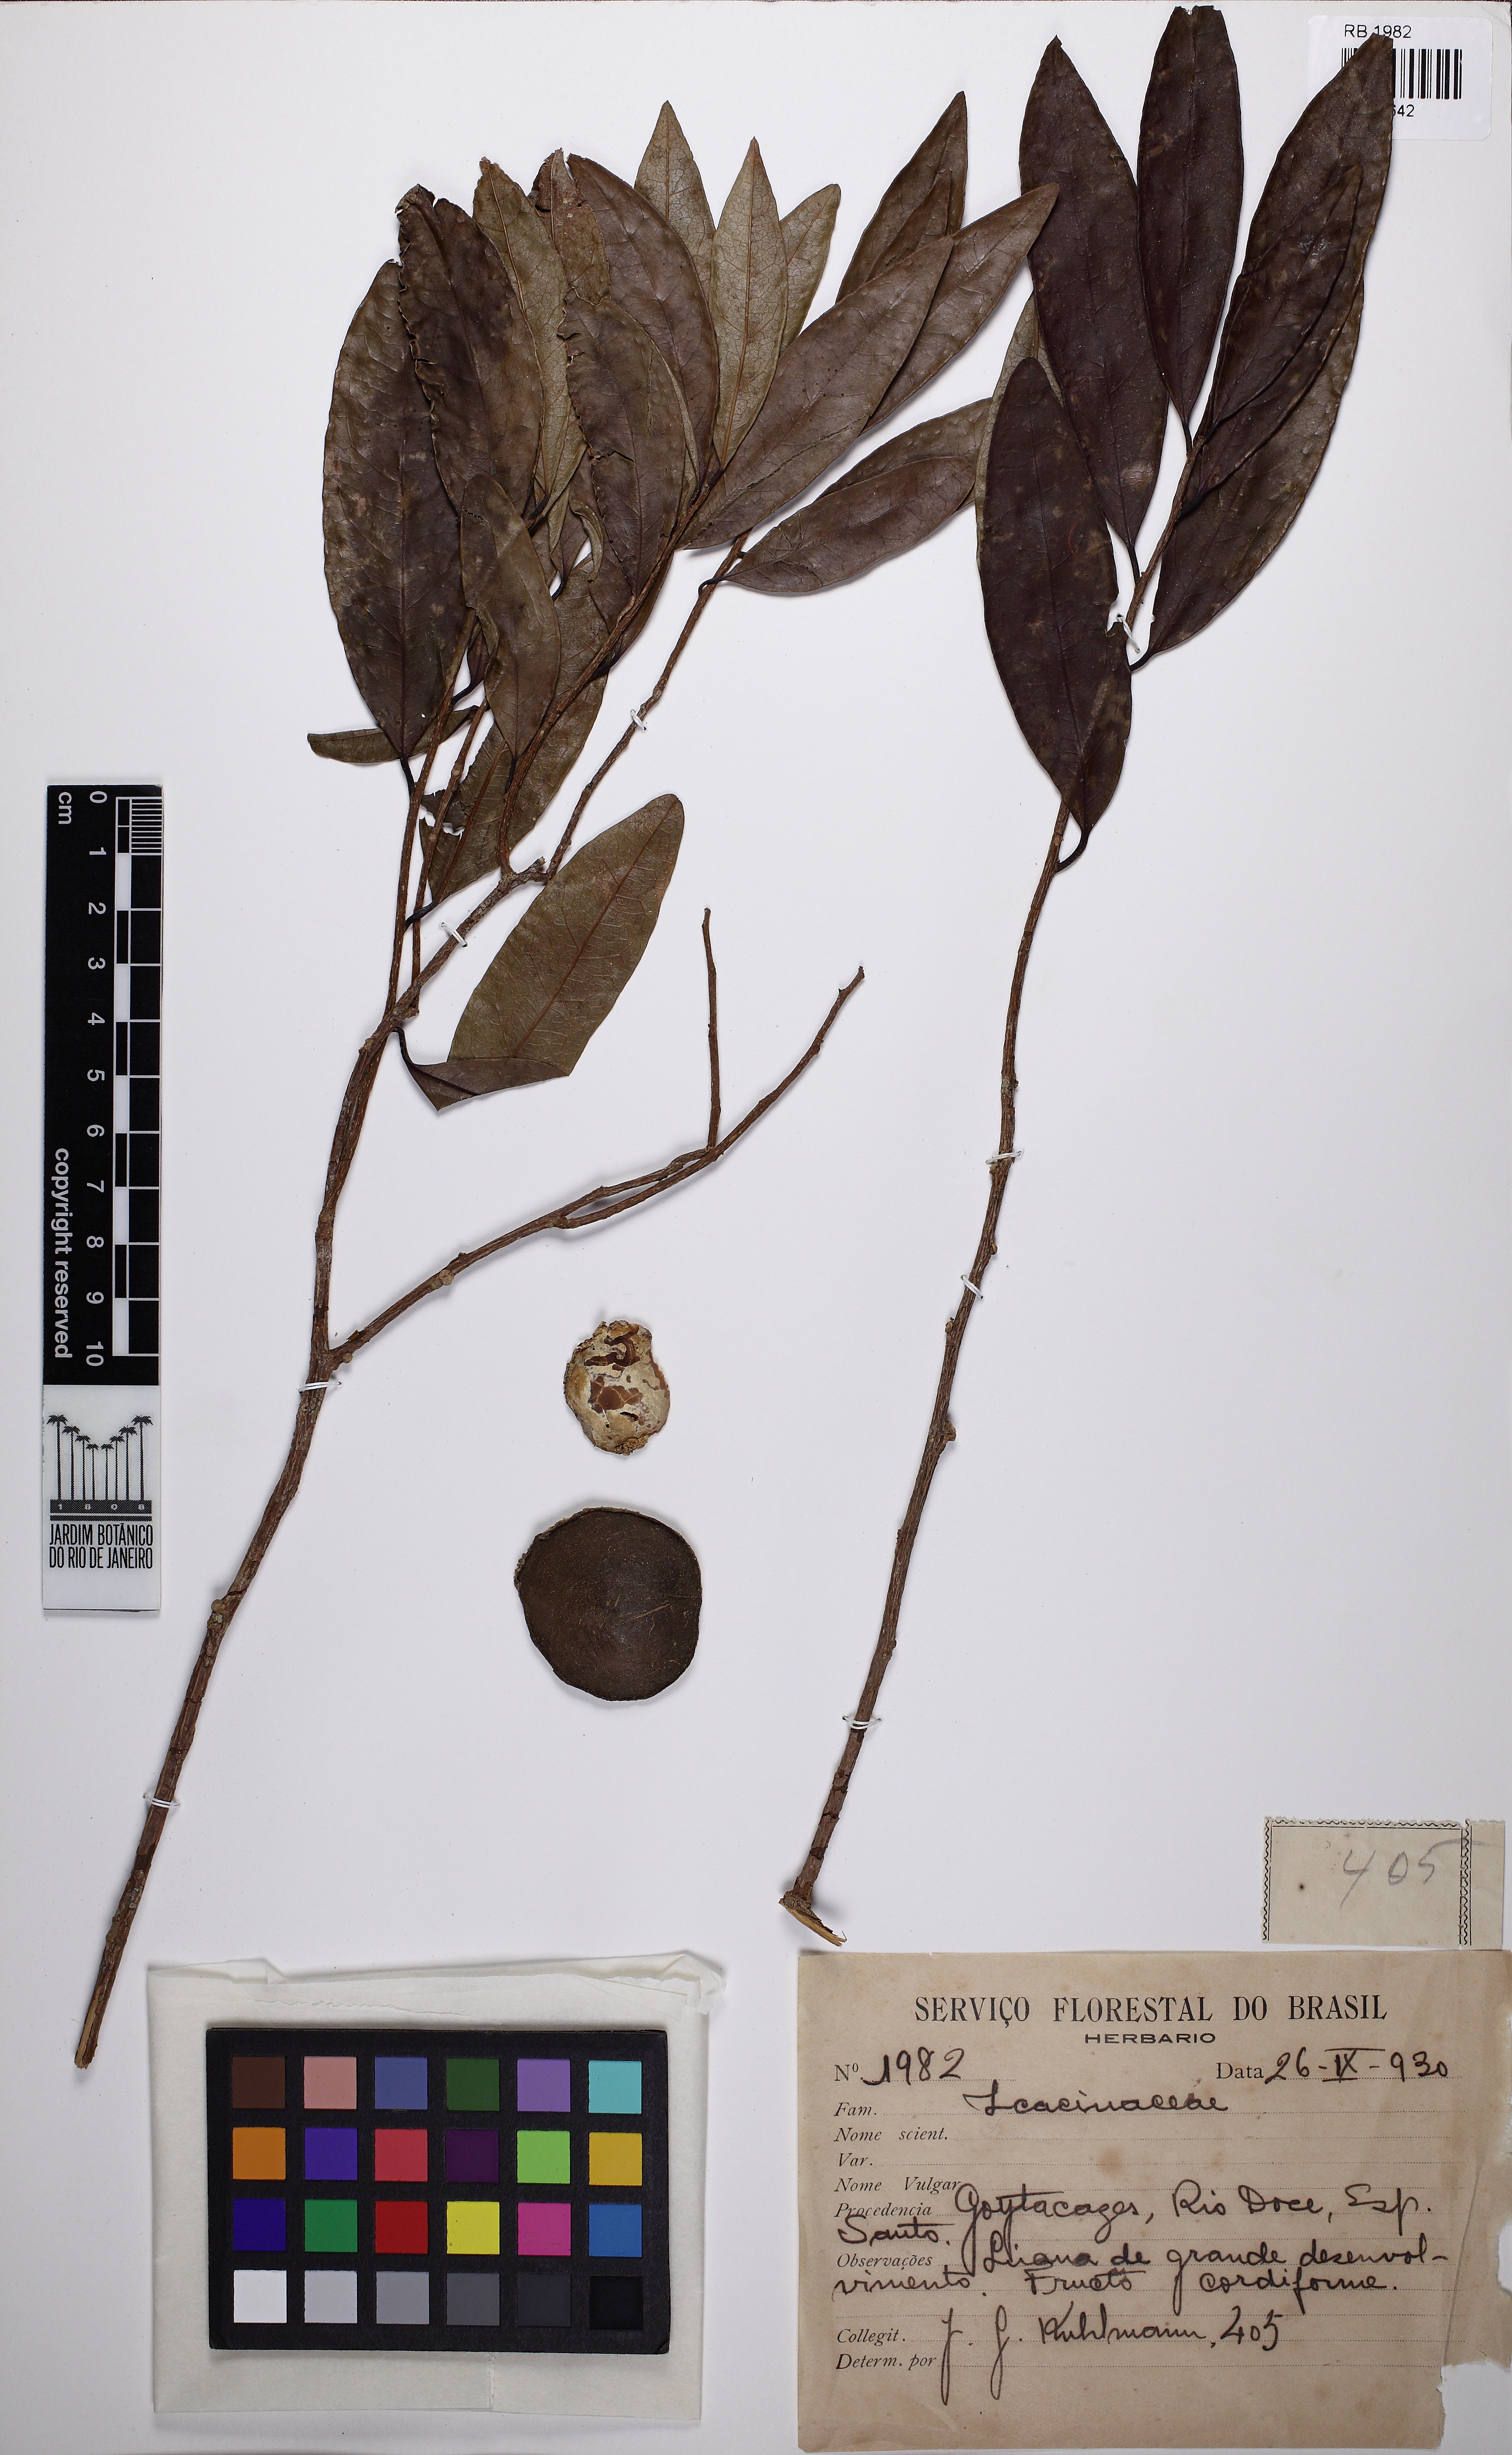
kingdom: Plantae
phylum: Tracheophyta
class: Magnoliopsida
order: Icacinales
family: Icacinaceae
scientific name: Icacinaceae
